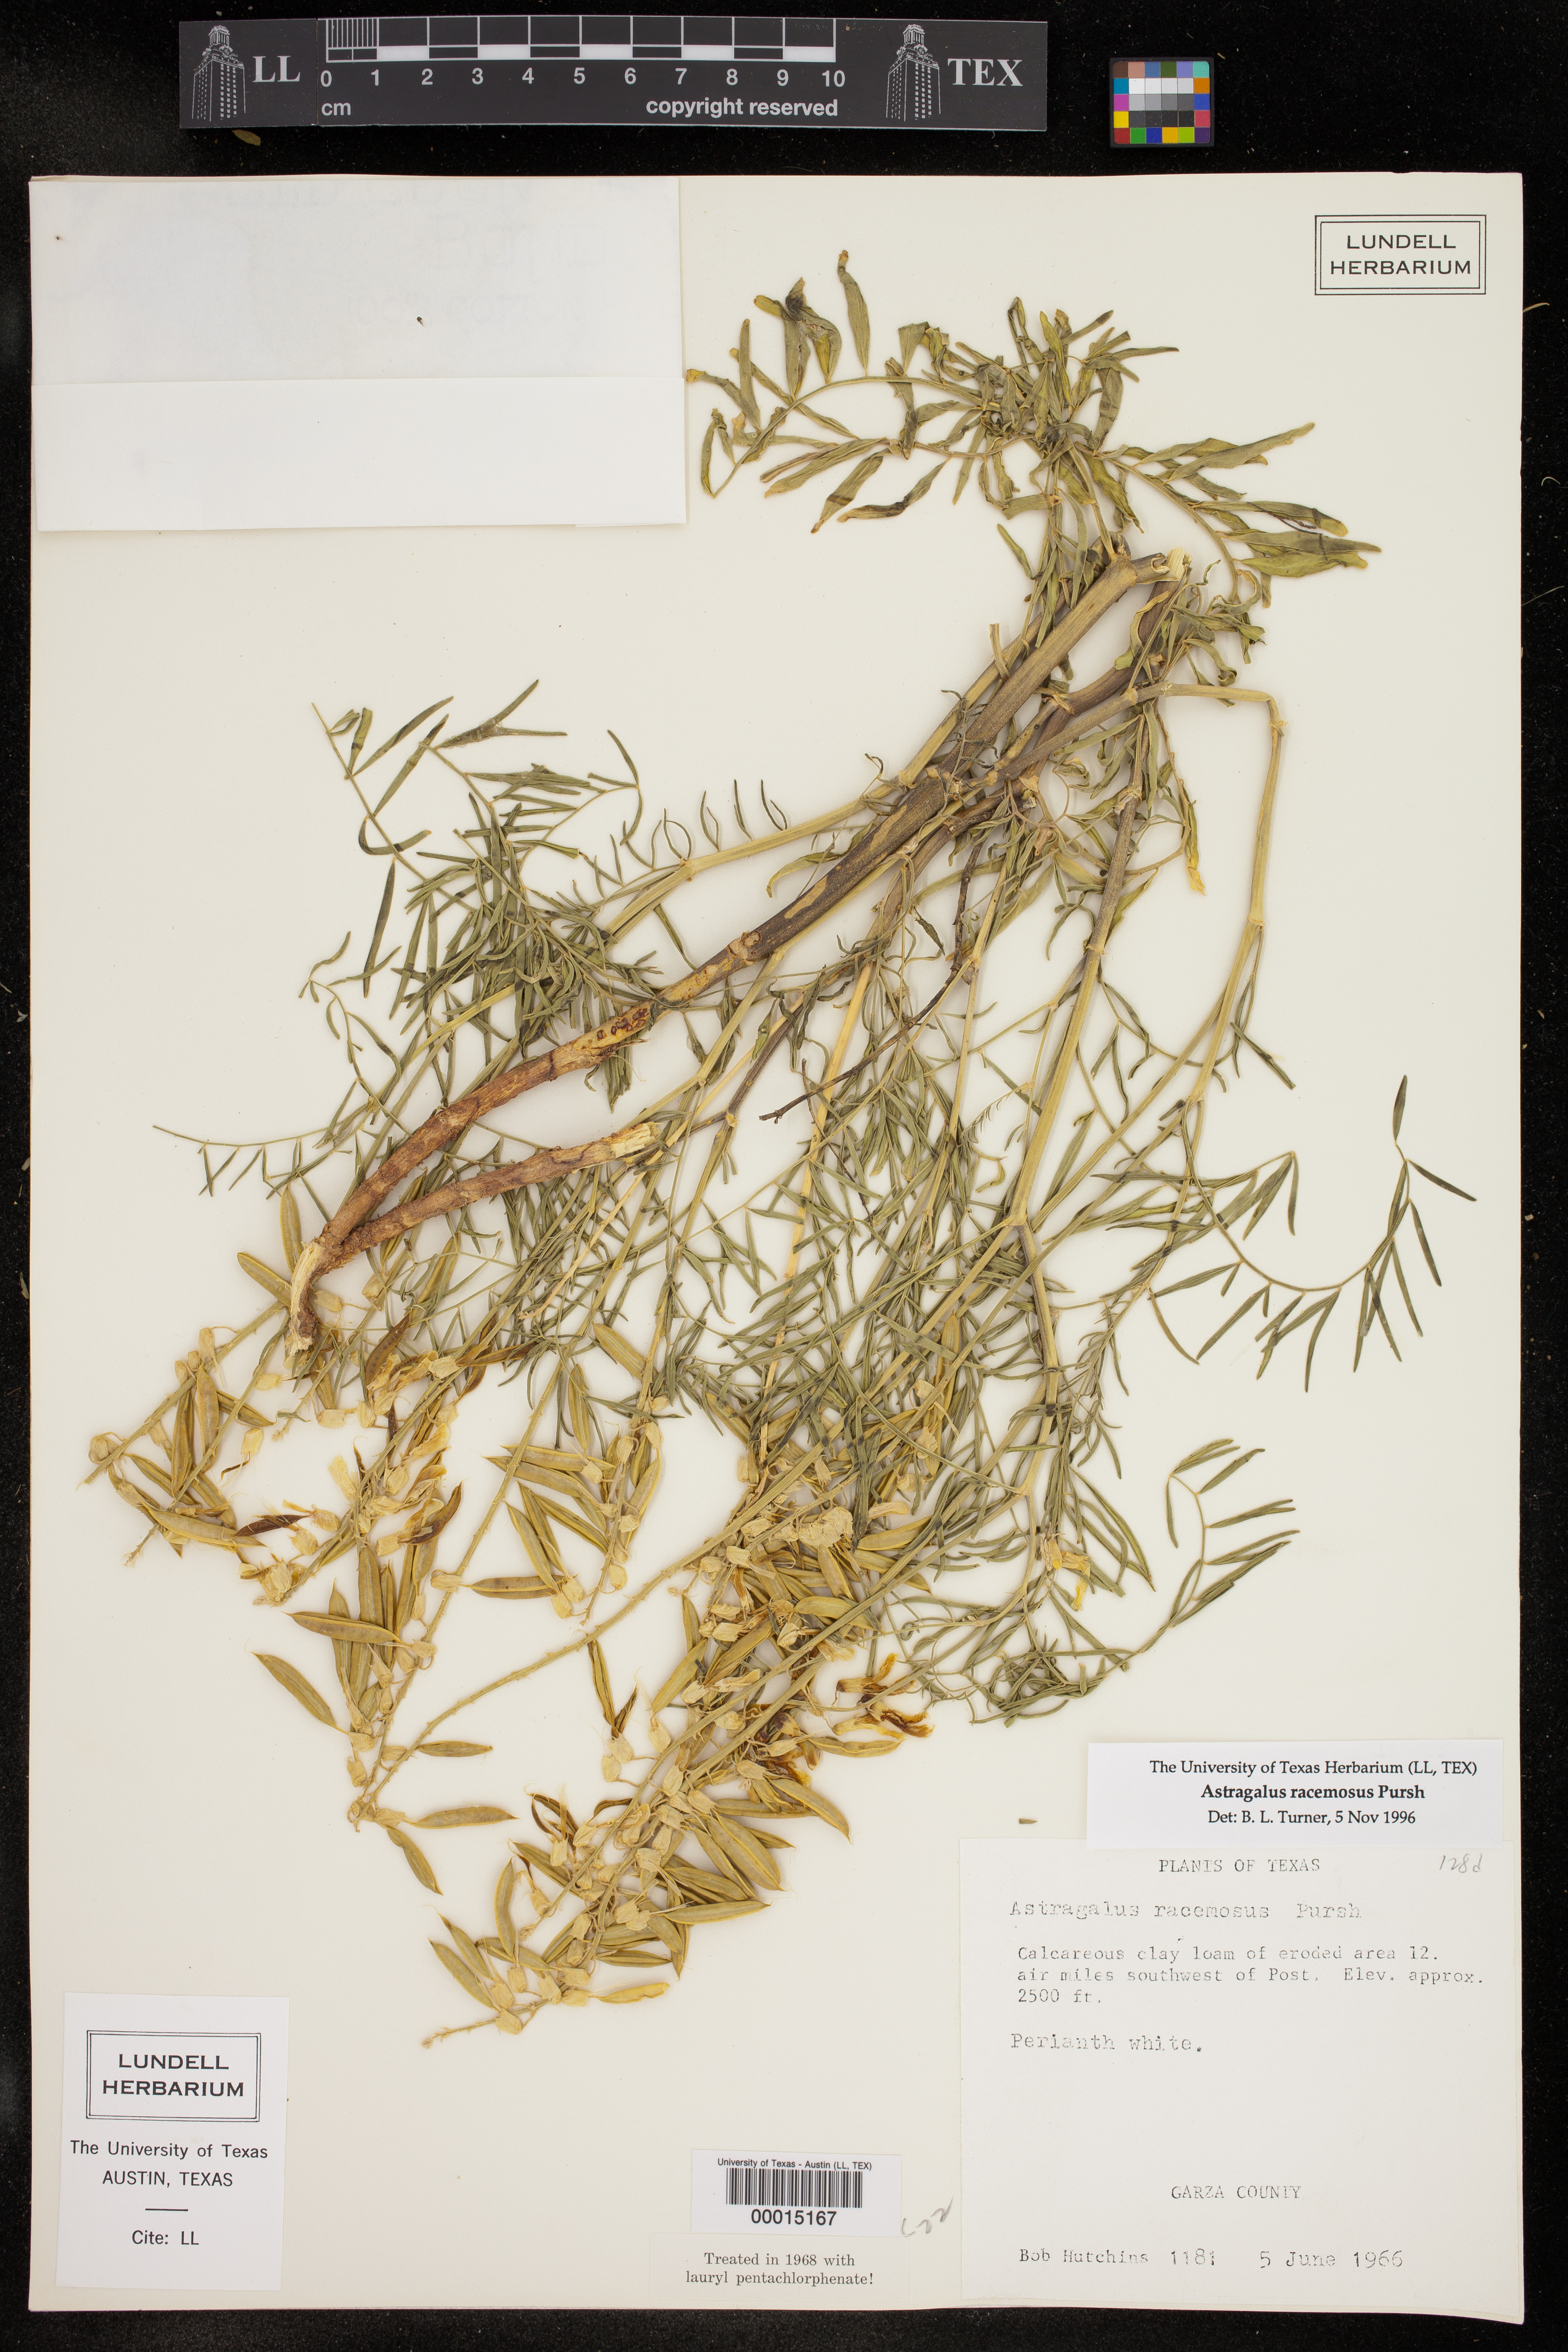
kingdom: Plantae
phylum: Tracheophyta
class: Magnoliopsida
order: Fabales
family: Fabaceae
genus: Astragalus
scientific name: Astragalus racemosus
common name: Alkali milk-vetch
